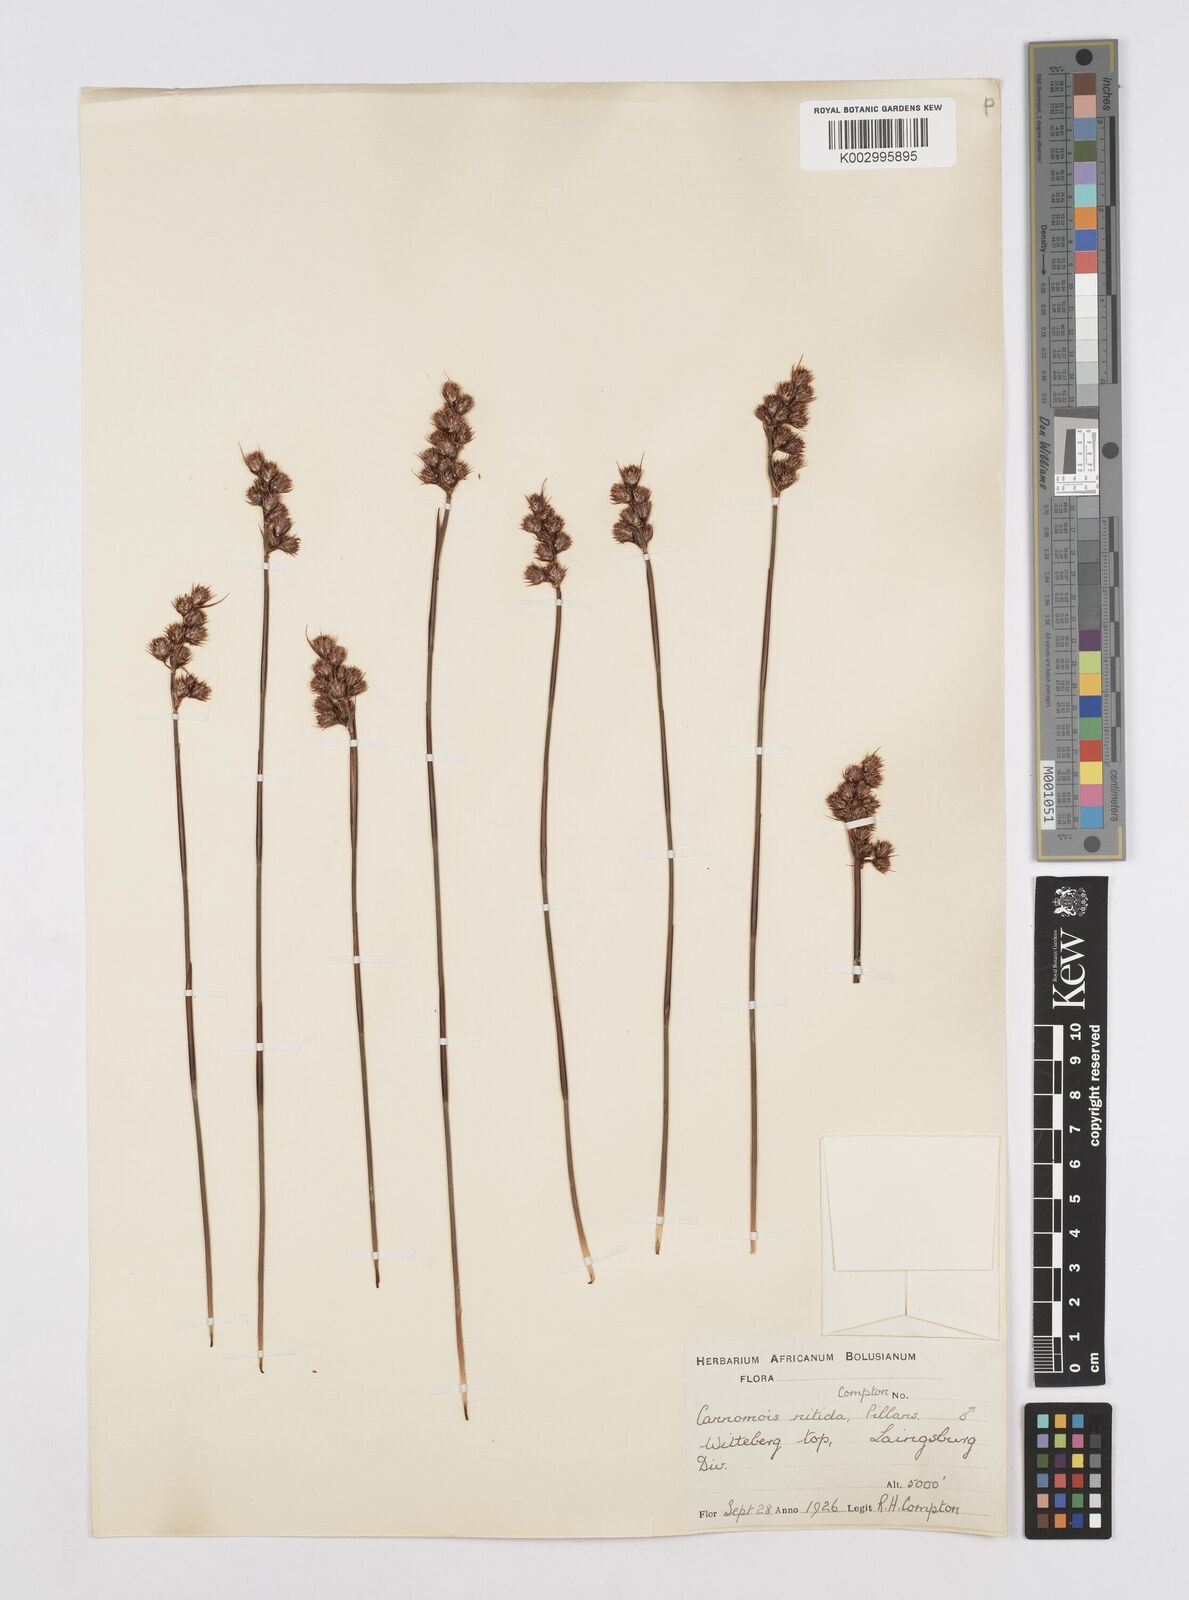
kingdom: Plantae
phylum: Tracheophyta
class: Liliopsida
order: Poales
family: Restionaceae
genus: Cannomois
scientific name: Cannomois nitida
